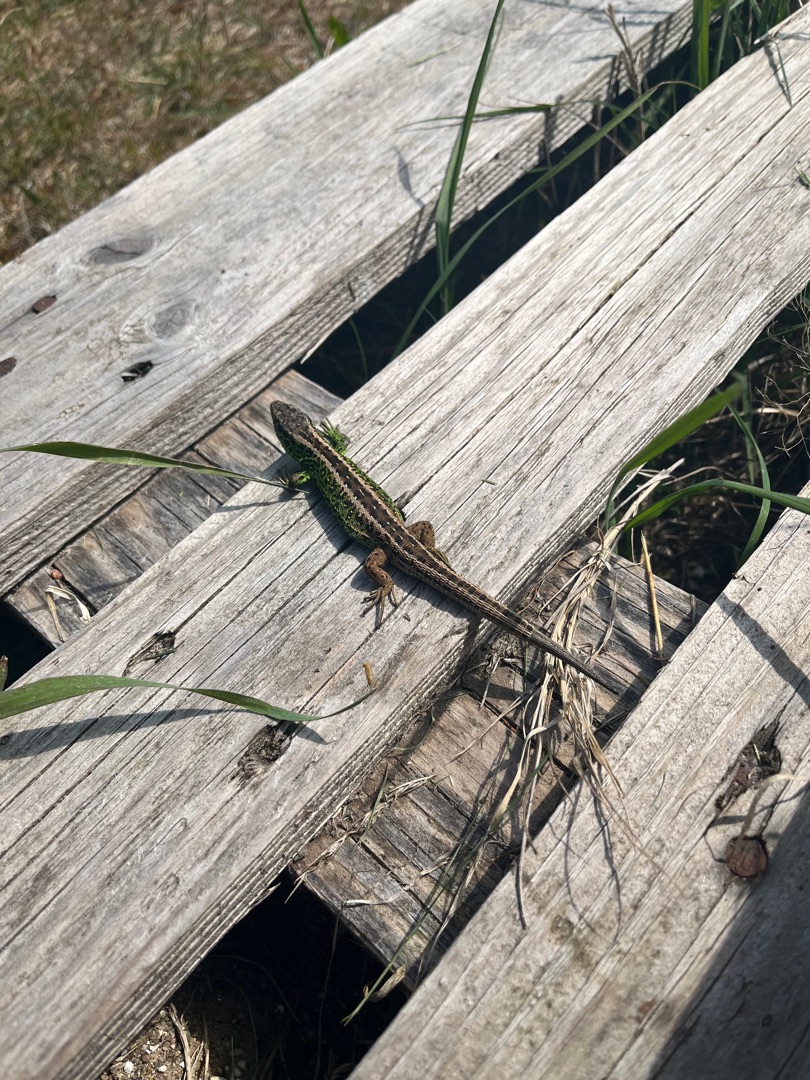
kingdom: Animalia
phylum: Chordata
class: Squamata
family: Lacertidae
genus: Lacerta
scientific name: Lacerta agilis
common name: Markfirben
